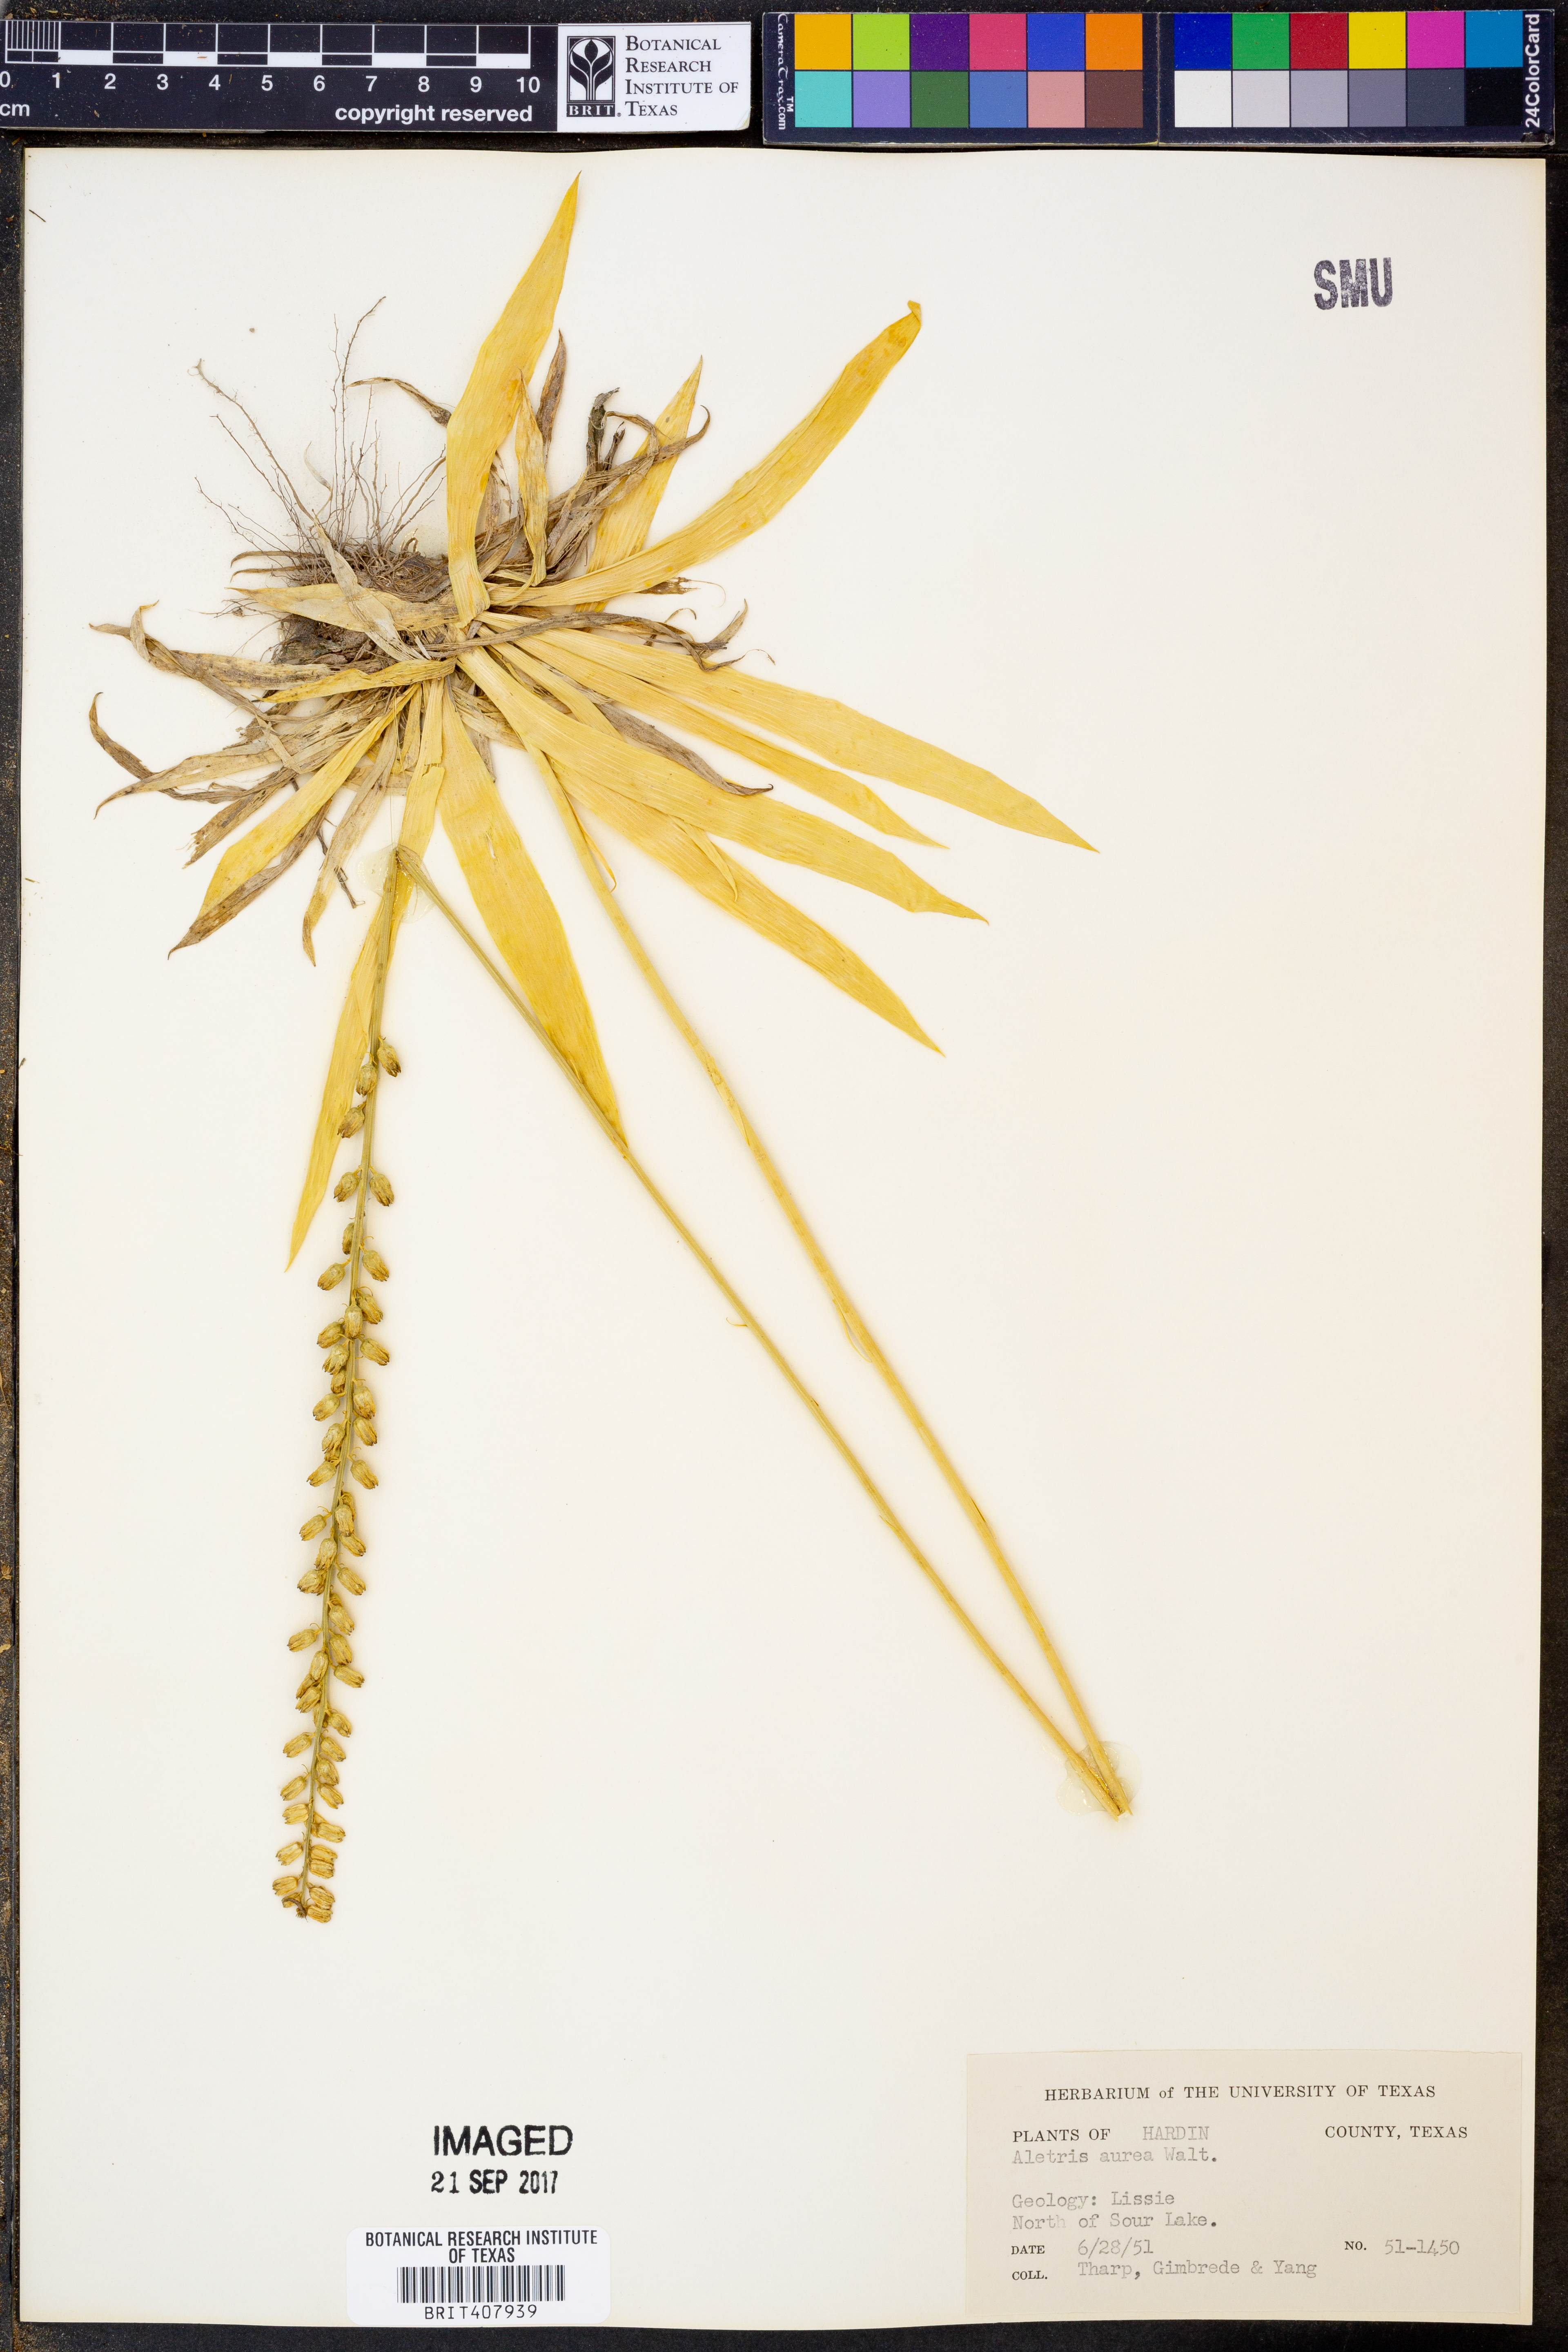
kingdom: Plantae
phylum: Tracheophyta
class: Liliopsida
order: Dioscoreales
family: Nartheciaceae
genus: Aletris
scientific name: Aletris aurea
